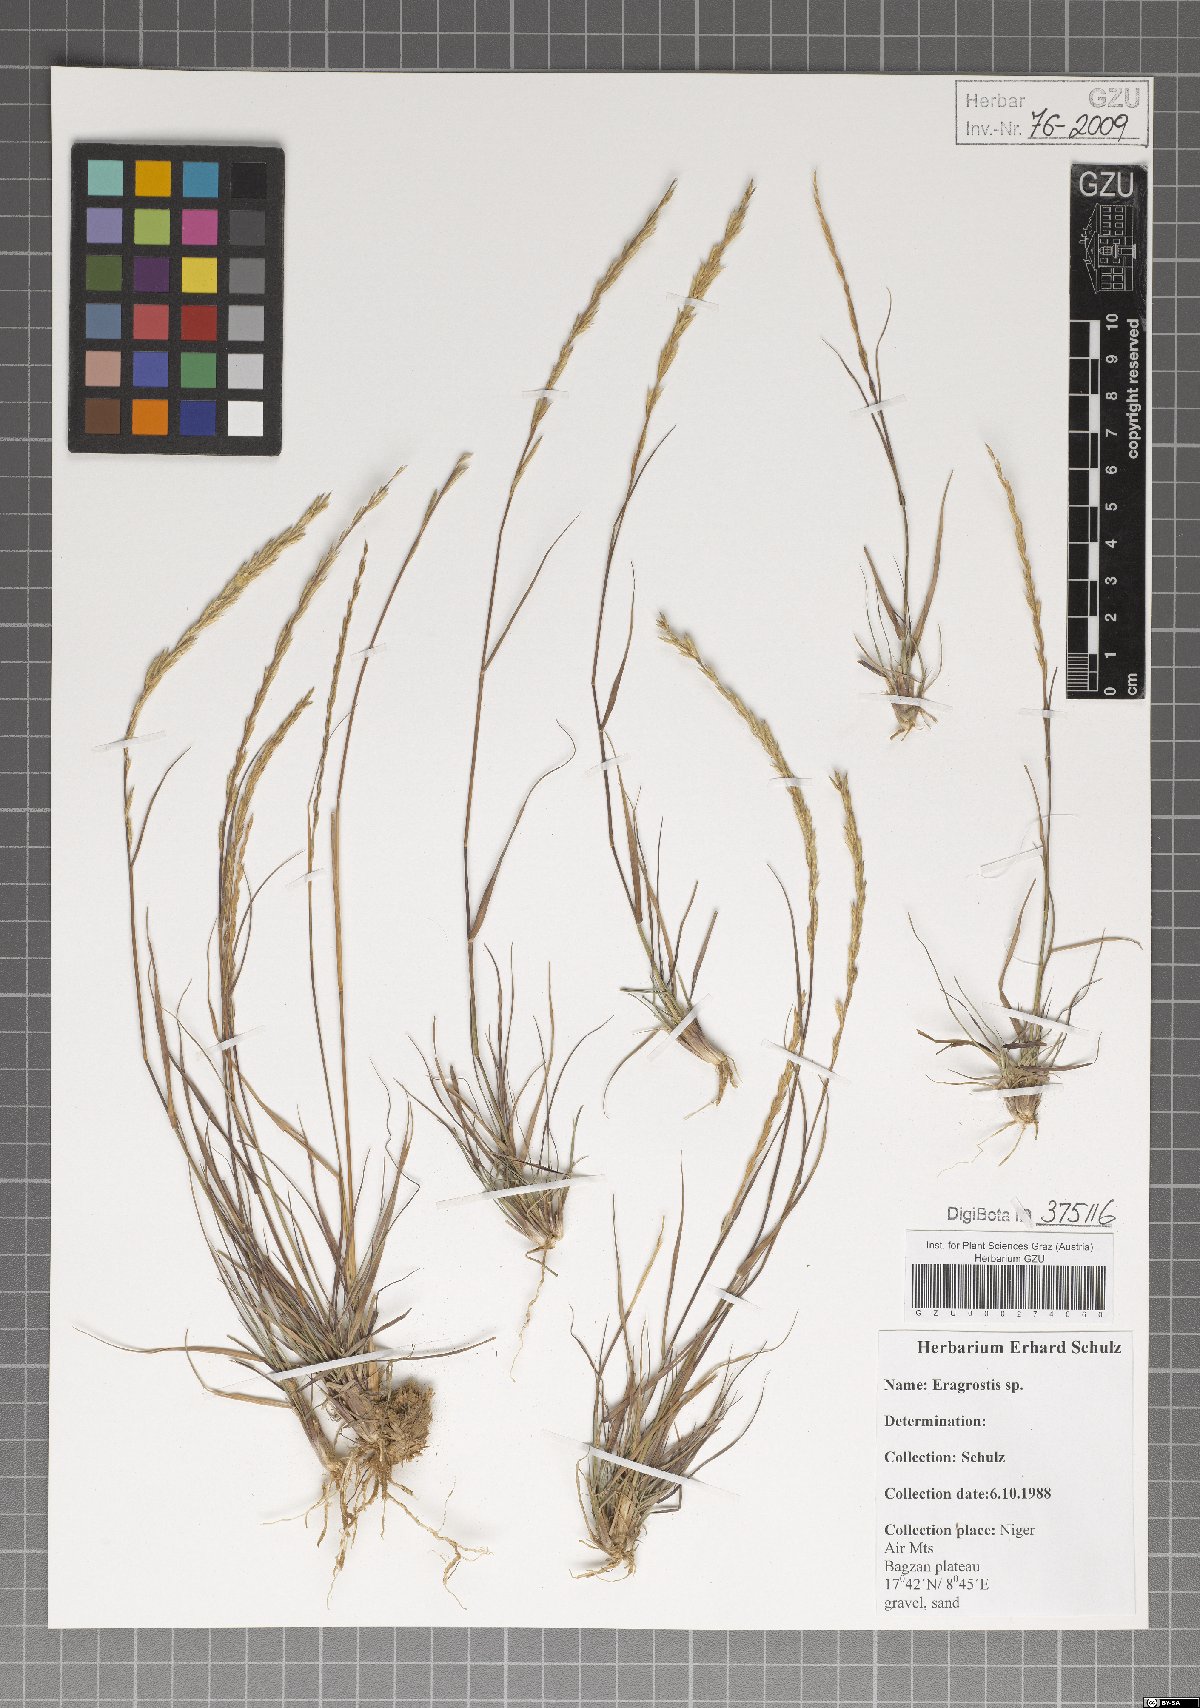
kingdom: Plantae
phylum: Tracheophyta
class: Liliopsida
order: Poales
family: Poaceae
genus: Eragrostis
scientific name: Eragrostis
